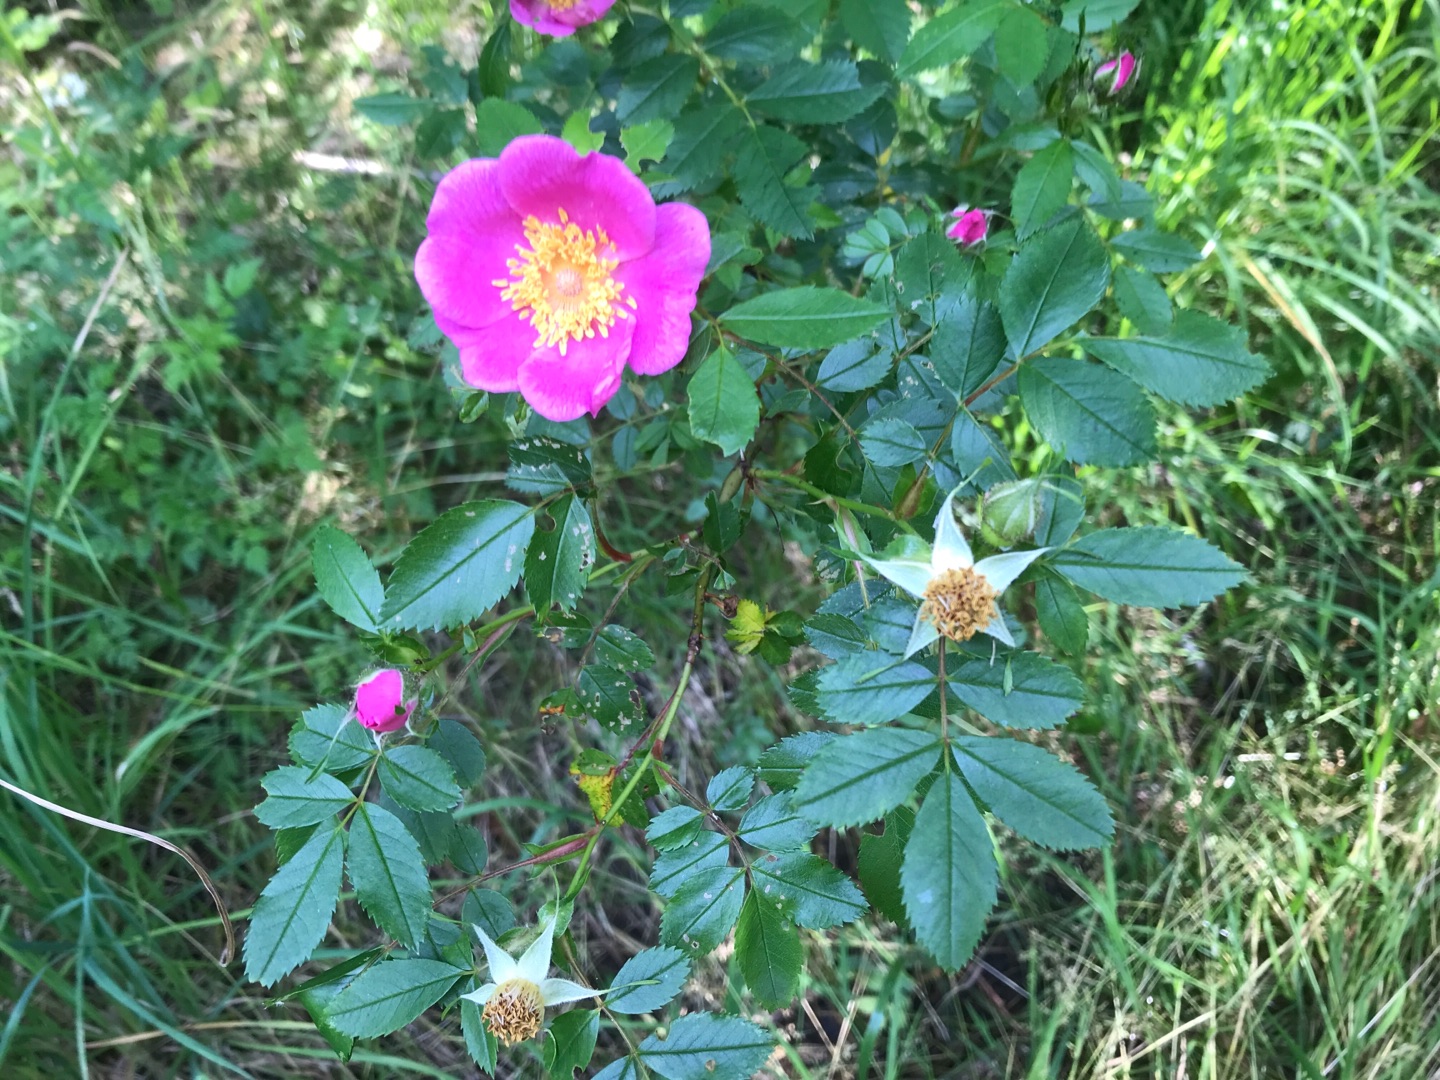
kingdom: Plantae
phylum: Tracheophyta
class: Magnoliopsida
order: Rosales
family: Rosaceae
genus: Rosa
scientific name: Rosa canina
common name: Glat hunde-rose
